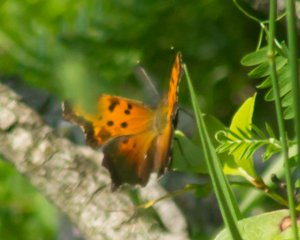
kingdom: Animalia
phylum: Arthropoda
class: Insecta
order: Lepidoptera
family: Nymphalidae
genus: Polygonia
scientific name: Polygonia progne
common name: Gray Comma
